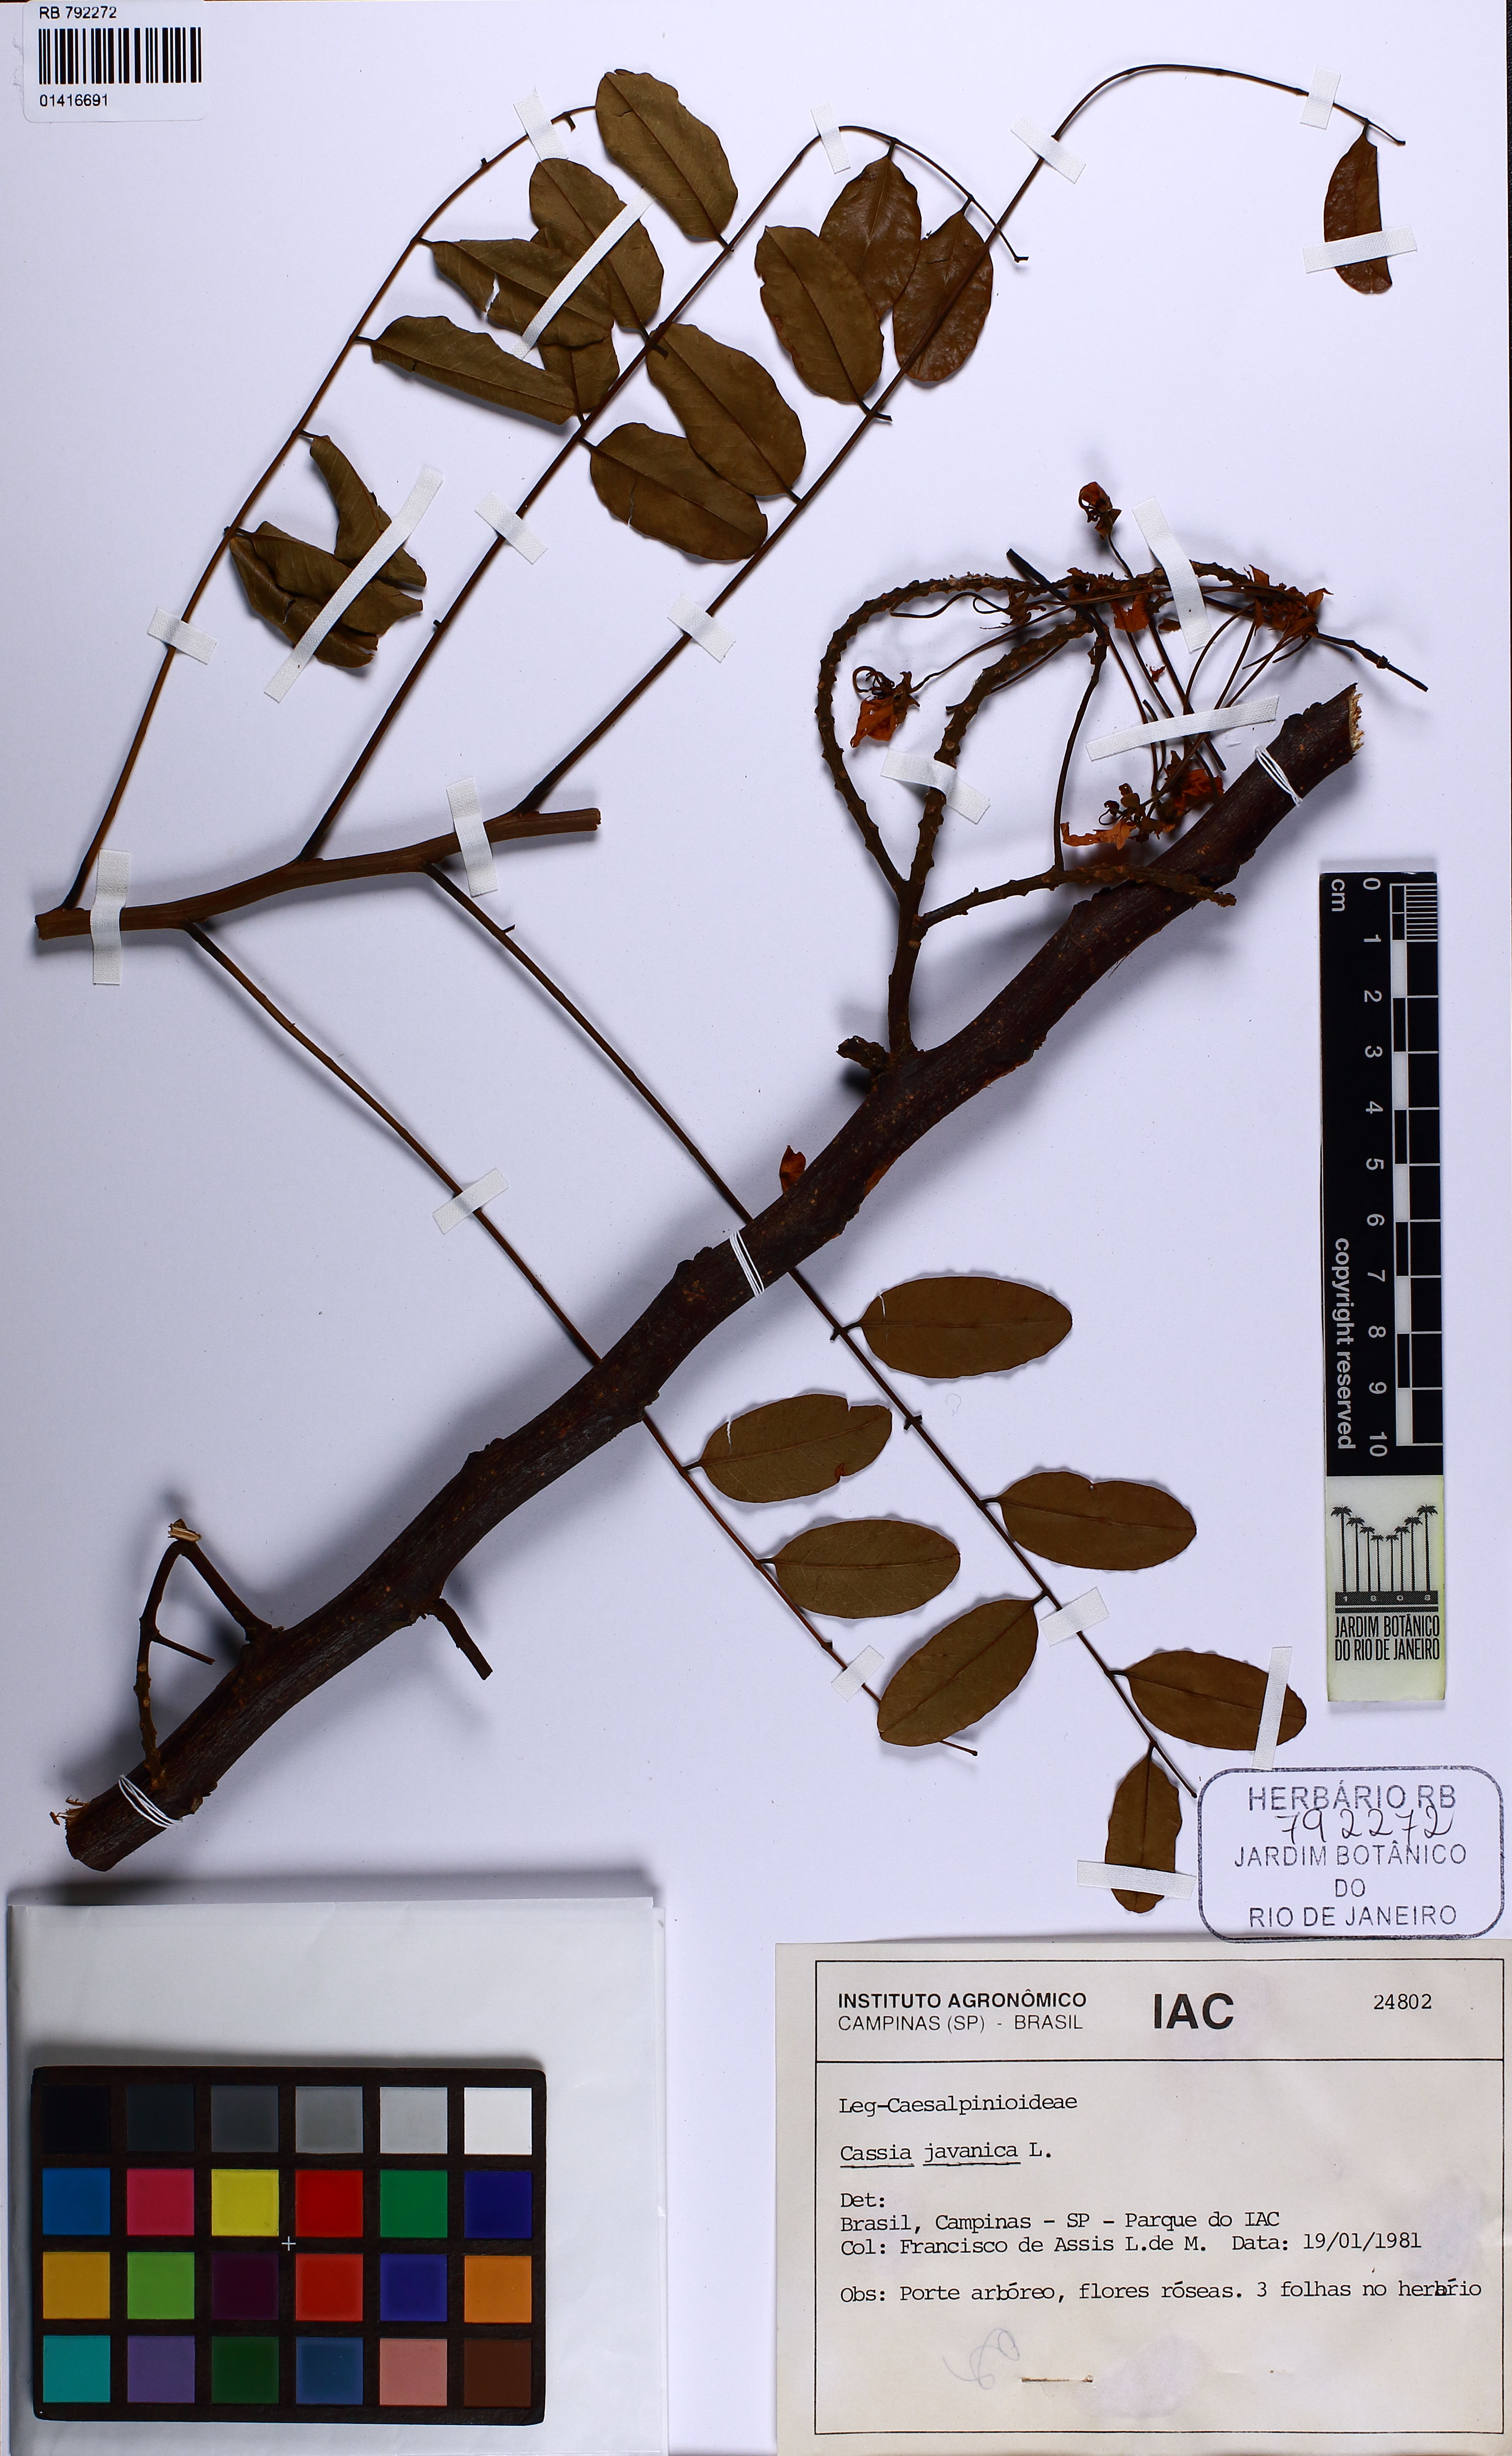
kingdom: Plantae
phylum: Tracheophyta
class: Magnoliopsida
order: Fabales
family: Fabaceae
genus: Cassia
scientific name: Cassia javanica
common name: Apple blossom
